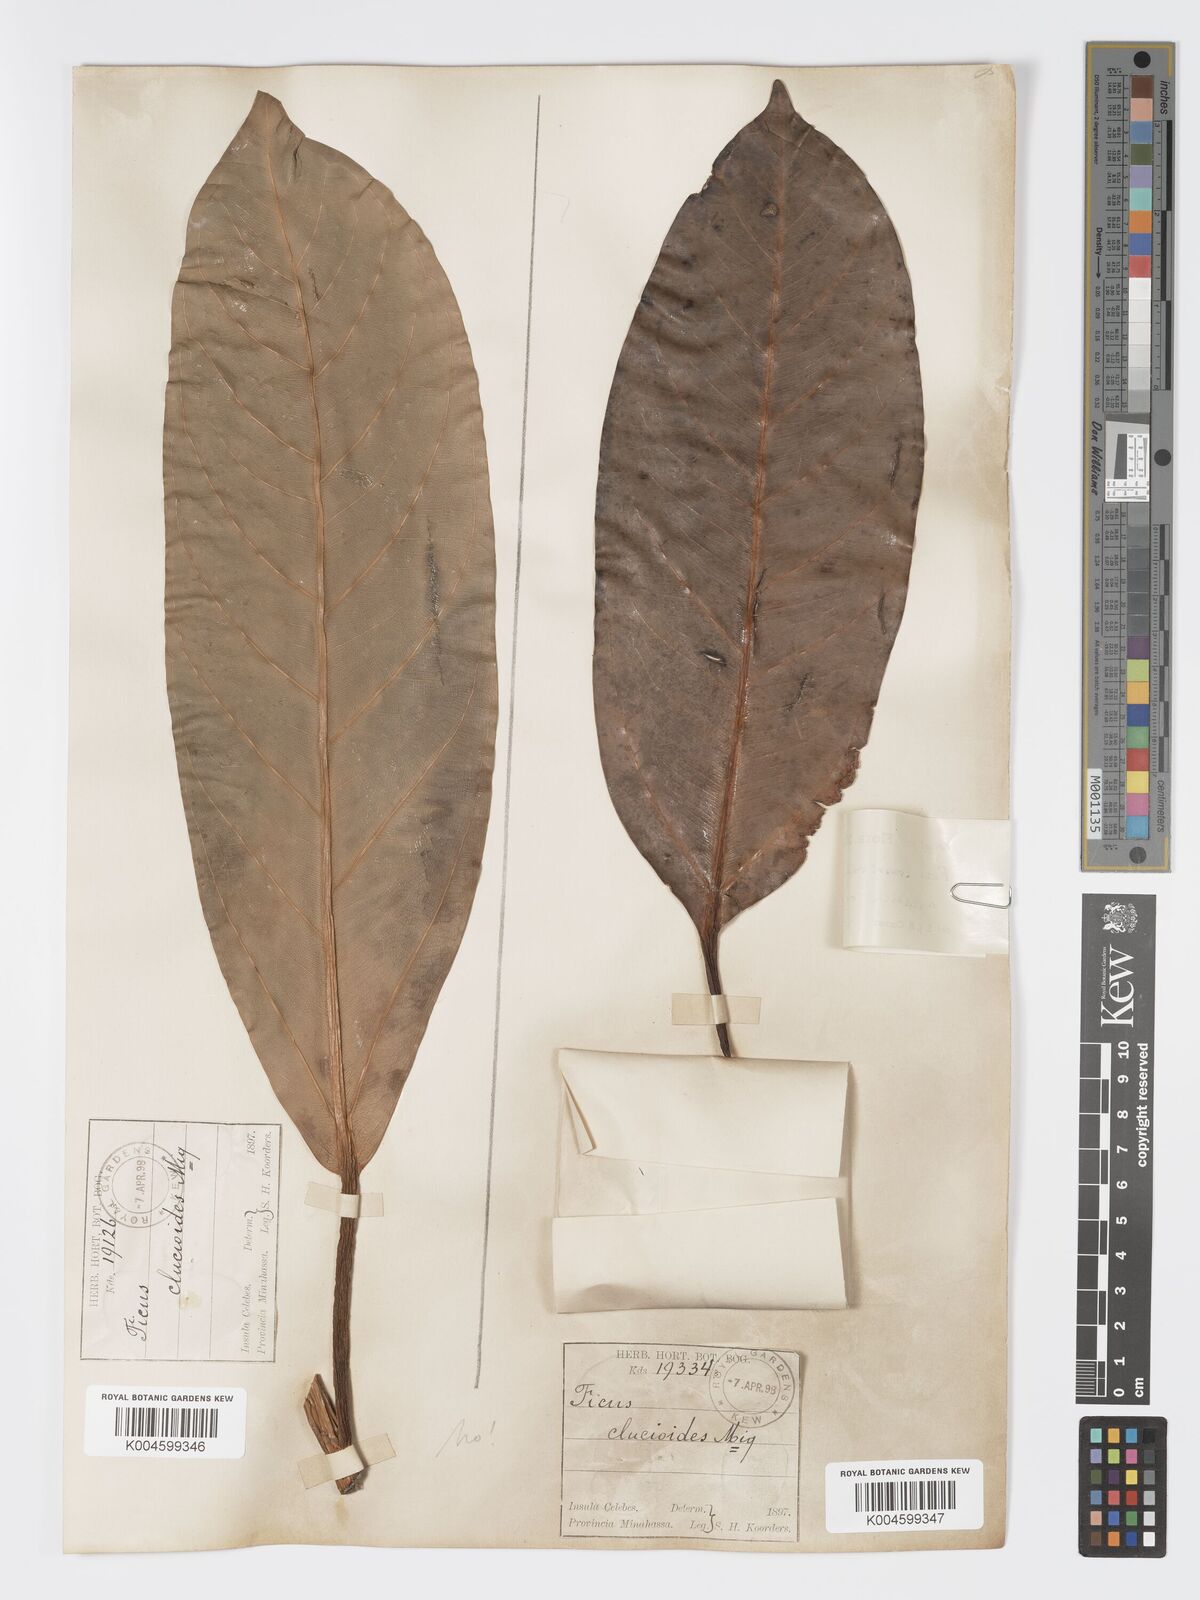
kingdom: Plantae
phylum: Tracheophyta
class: Magnoliopsida
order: Rosales
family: Moraceae
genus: Ficus
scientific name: Ficus crassiramea
